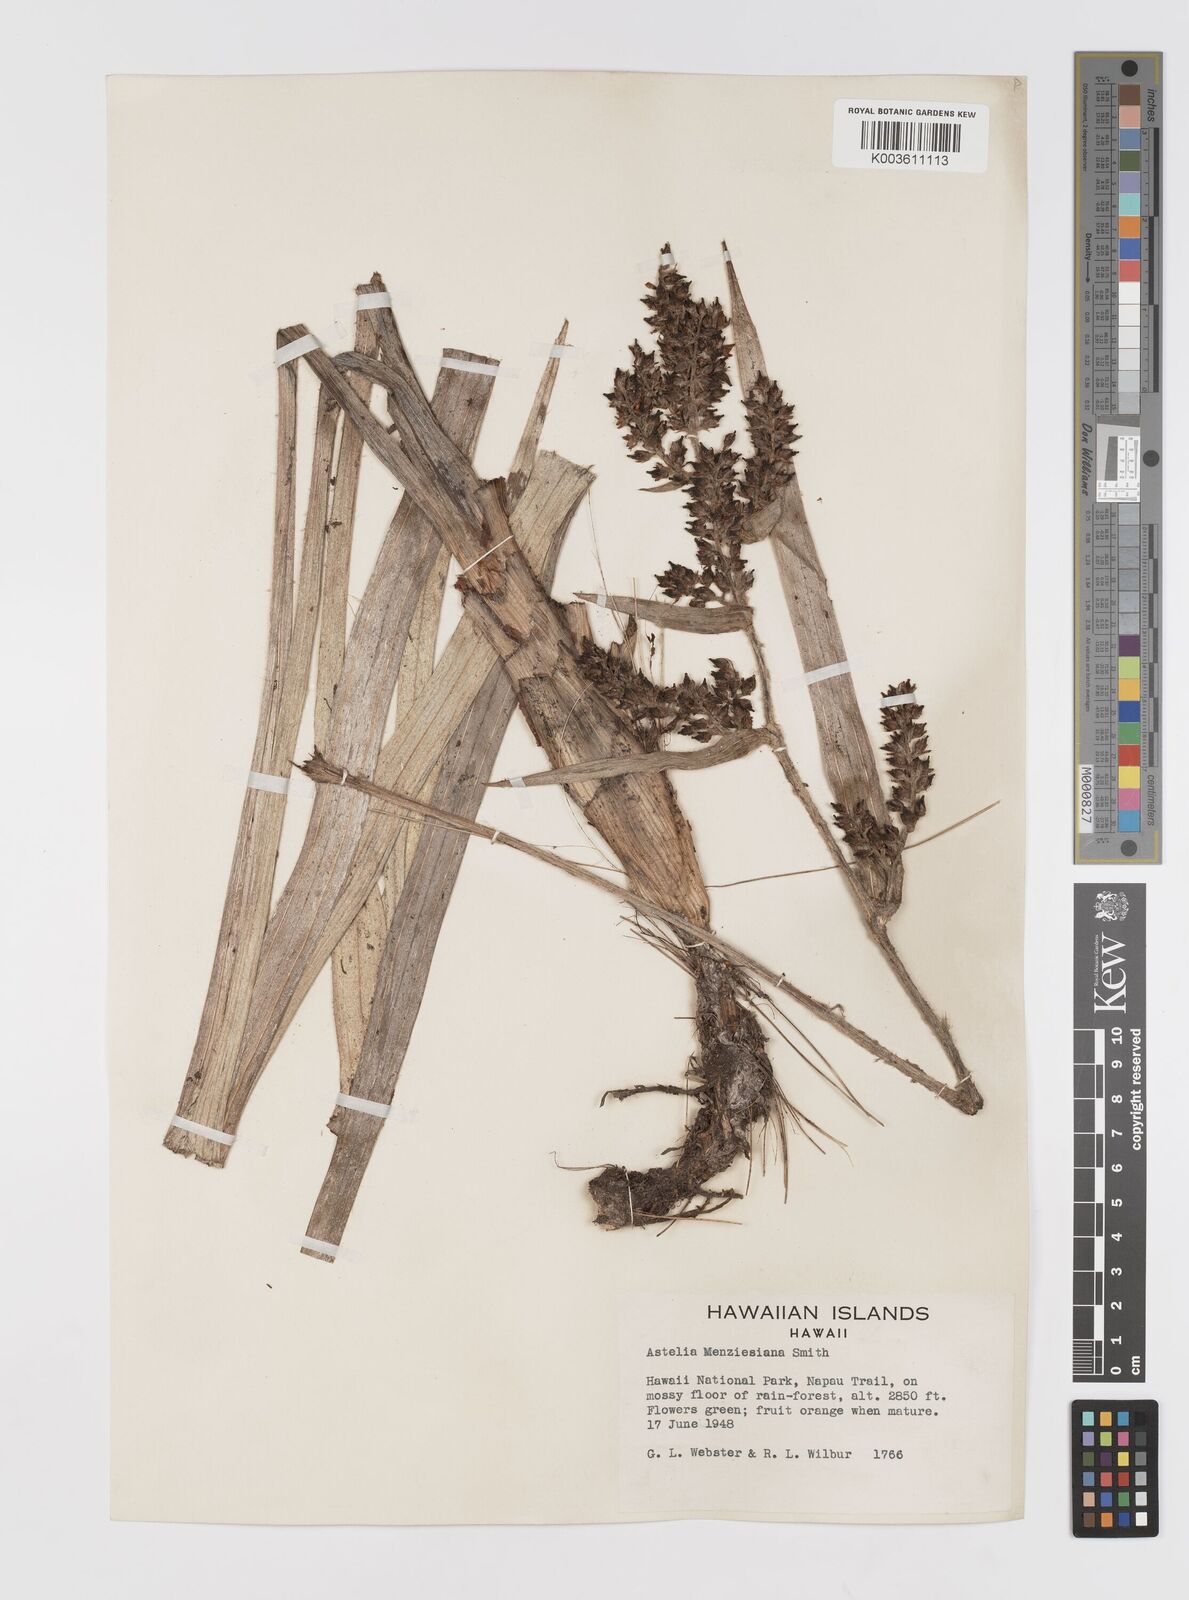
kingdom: Plantae
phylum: Tracheophyta
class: Liliopsida
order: Asparagales
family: Asteliaceae
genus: Astelia
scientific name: Astelia menziesiana
